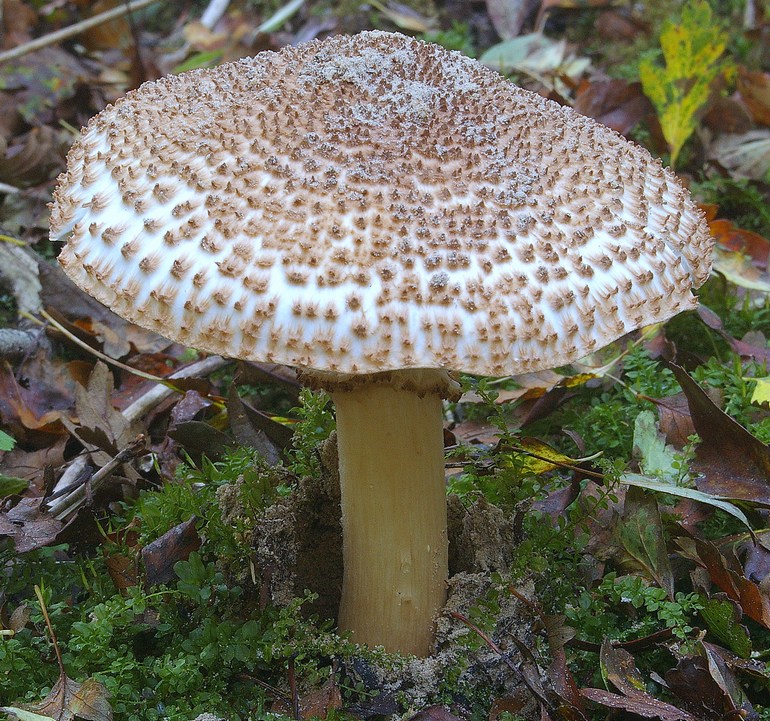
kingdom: Fungi
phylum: Basidiomycota
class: Agaricomycetes
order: Agaricales
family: Agaricaceae
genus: Echinoderma
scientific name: Echinoderma asperum
